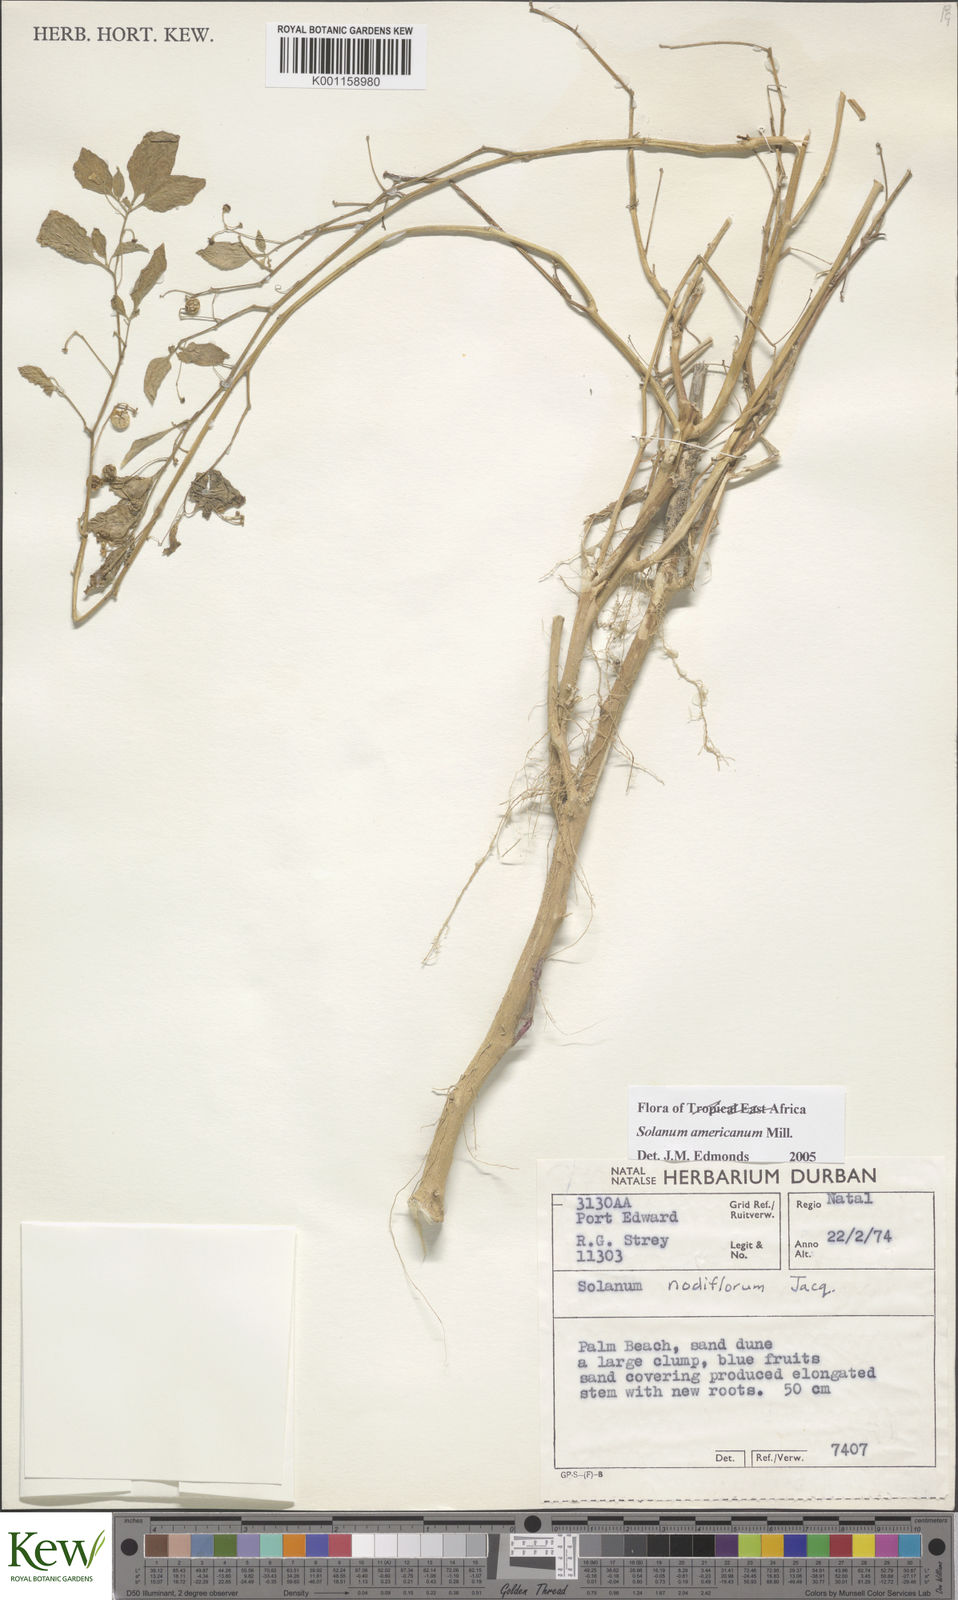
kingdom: Plantae
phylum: Tracheophyta
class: Magnoliopsida
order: Solanales
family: Solanaceae
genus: Solanum
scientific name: Solanum americanum
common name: American black nightshade
